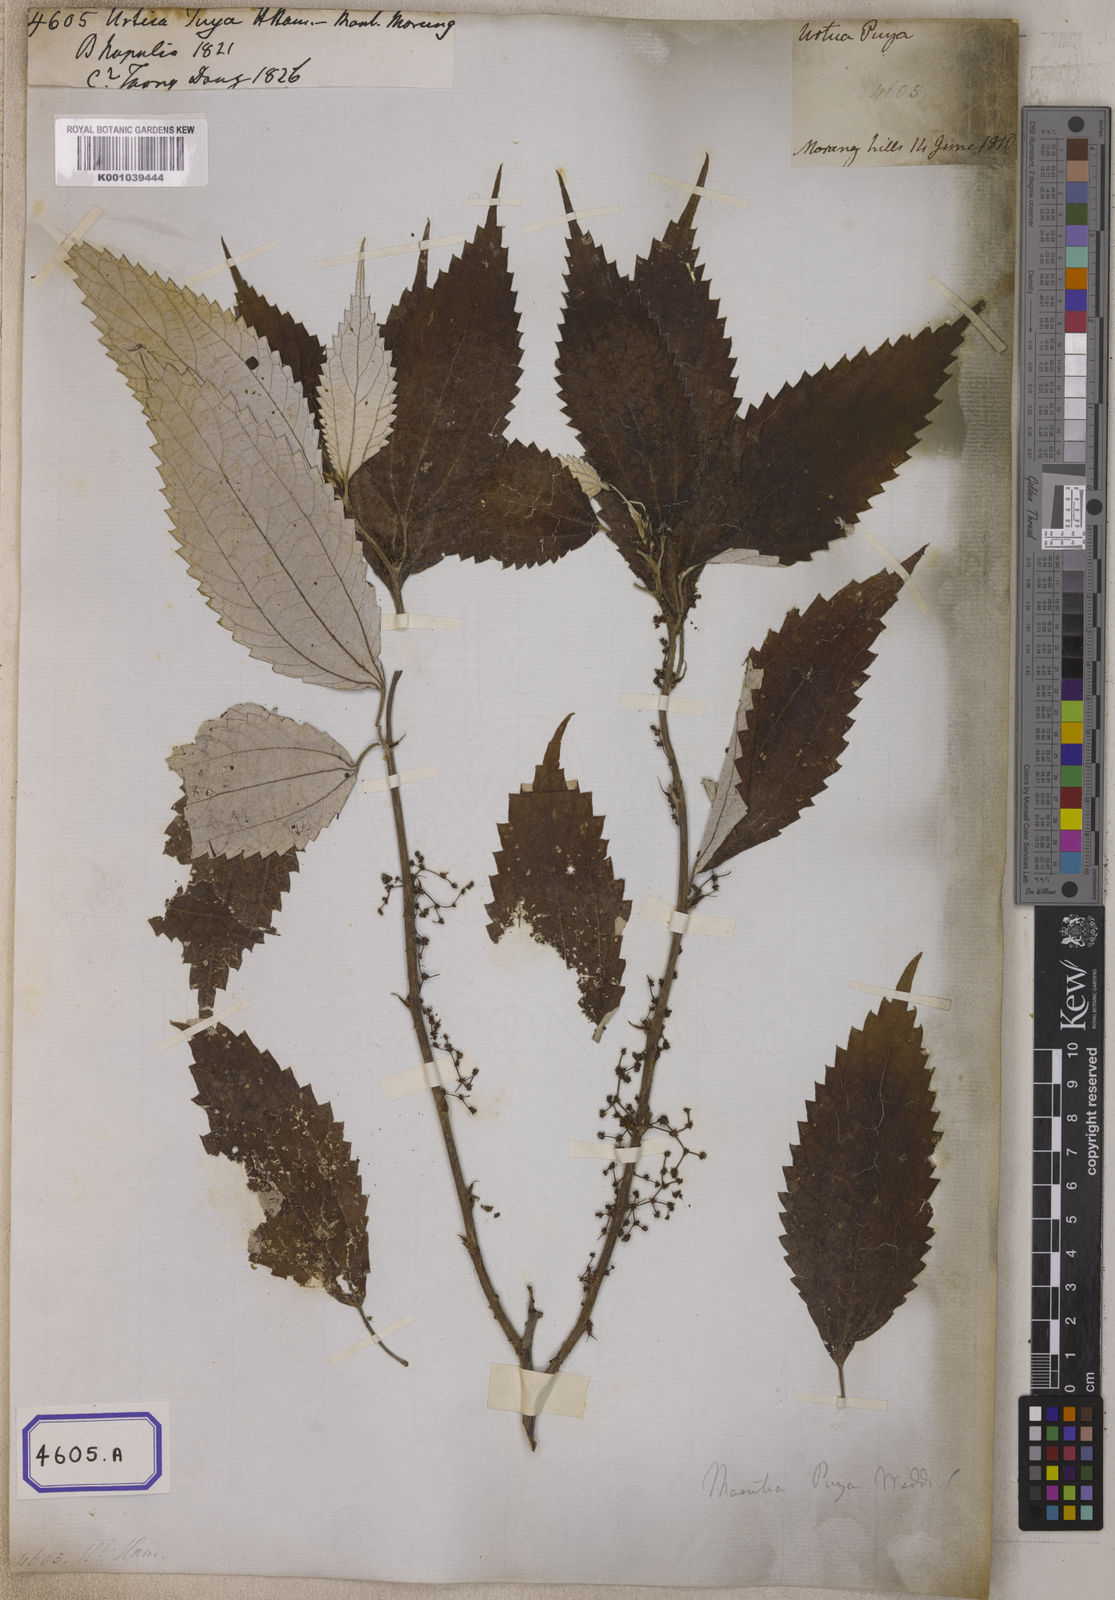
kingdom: Plantae
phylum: Tracheophyta
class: Magnoliopsida
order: Rosales
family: Urticaceae
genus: Leucosyke
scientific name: Leucosyke puya
